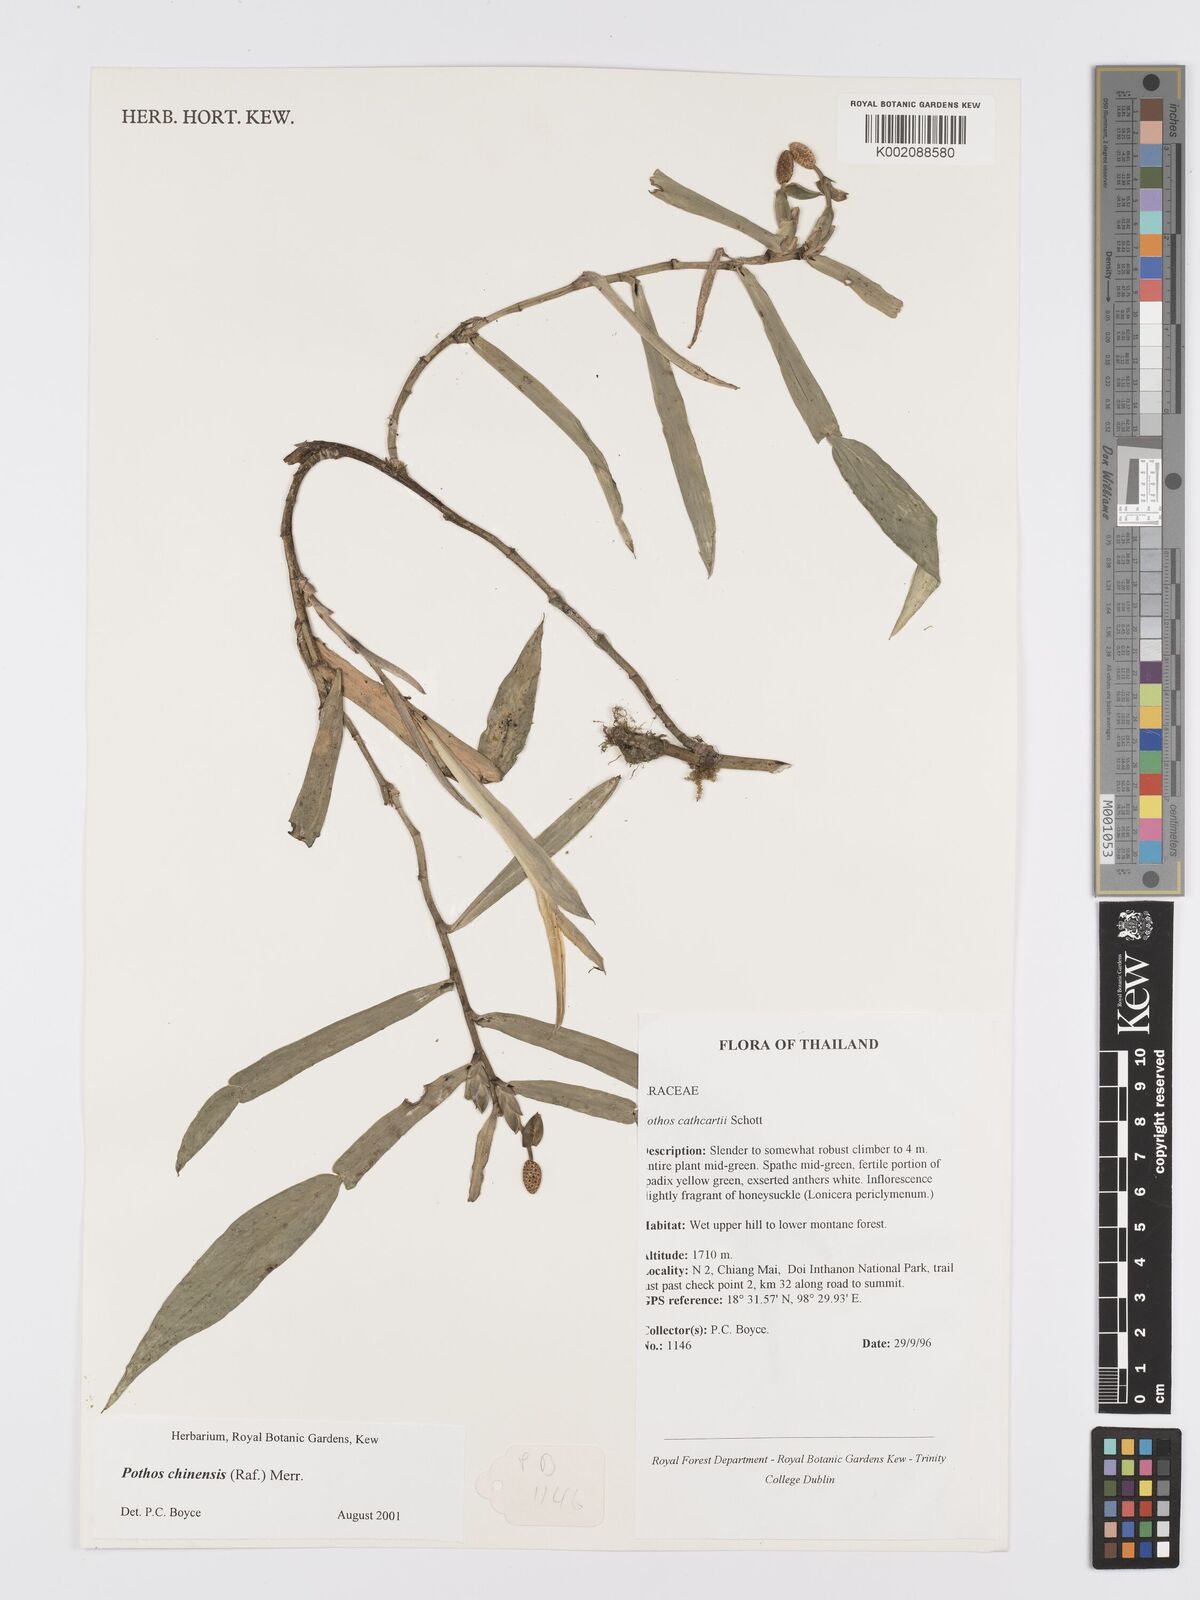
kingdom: Plantae
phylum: Tracheophyta
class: Liliopsida
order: Alismatales
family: Araceae
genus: Pothos
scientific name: Pothos chinensis
